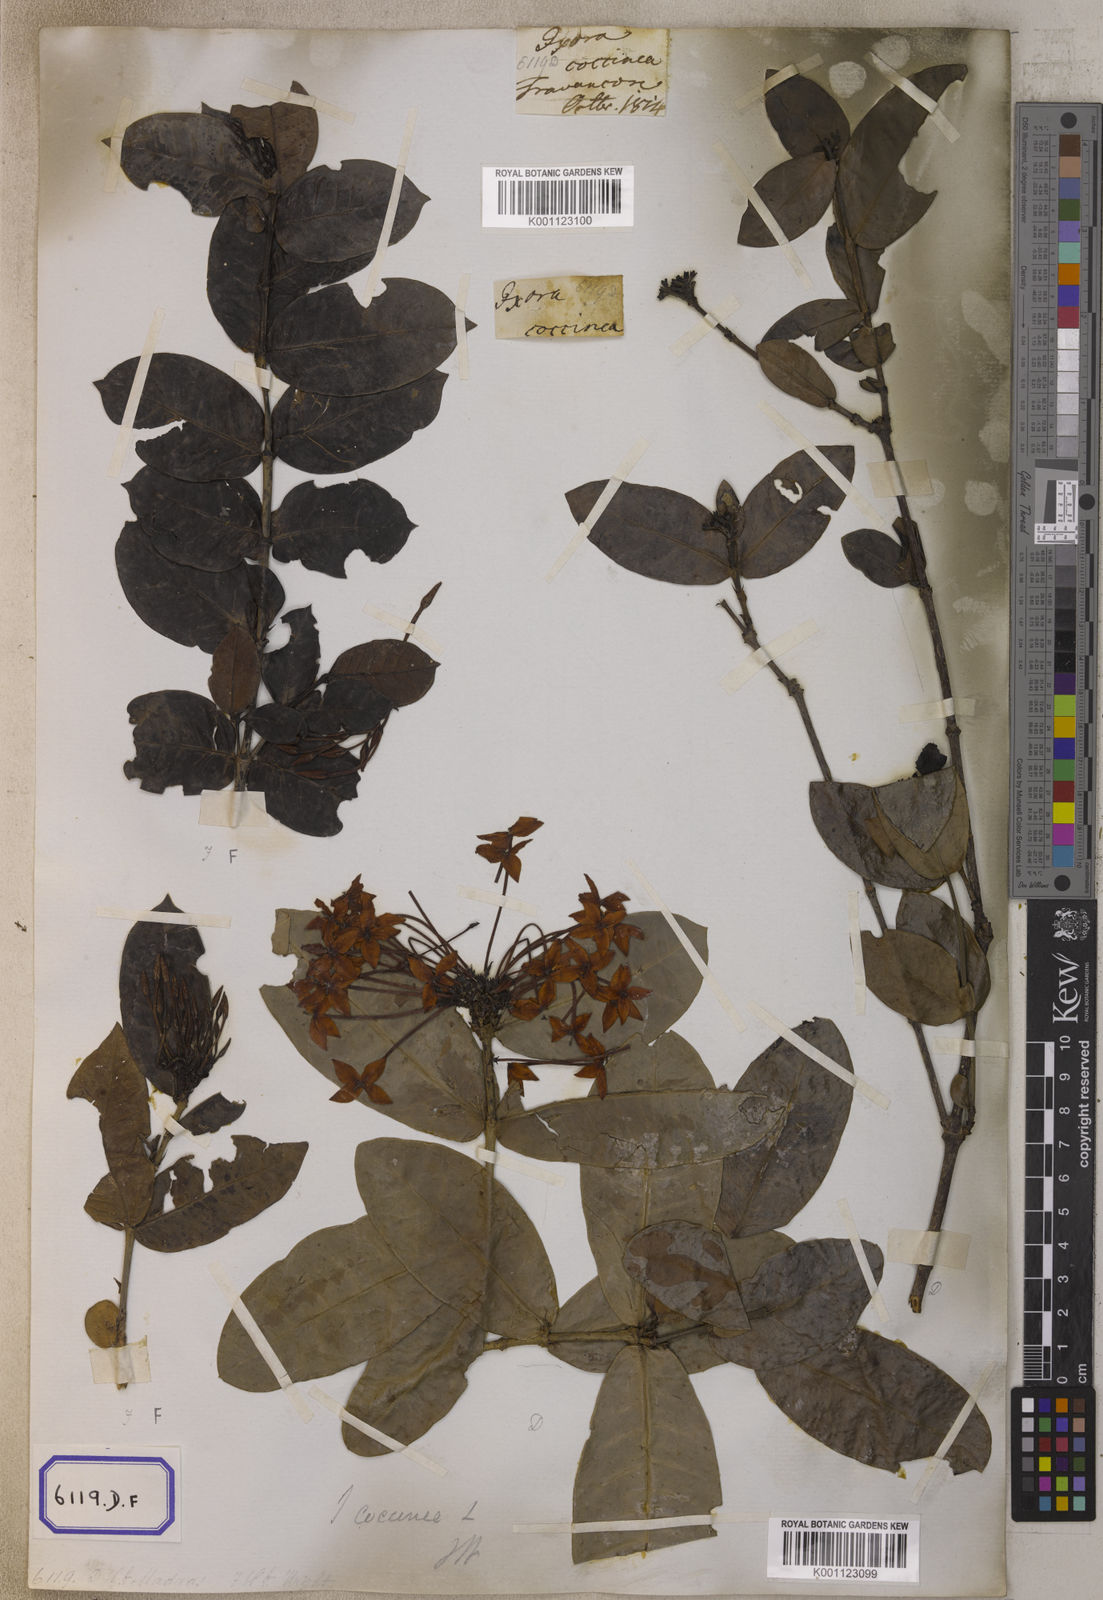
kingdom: Plantae
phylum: Tracheophyta
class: Magnoliopsida
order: Gentianales
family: Rubiaceae
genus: Ixora
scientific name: Ixora
